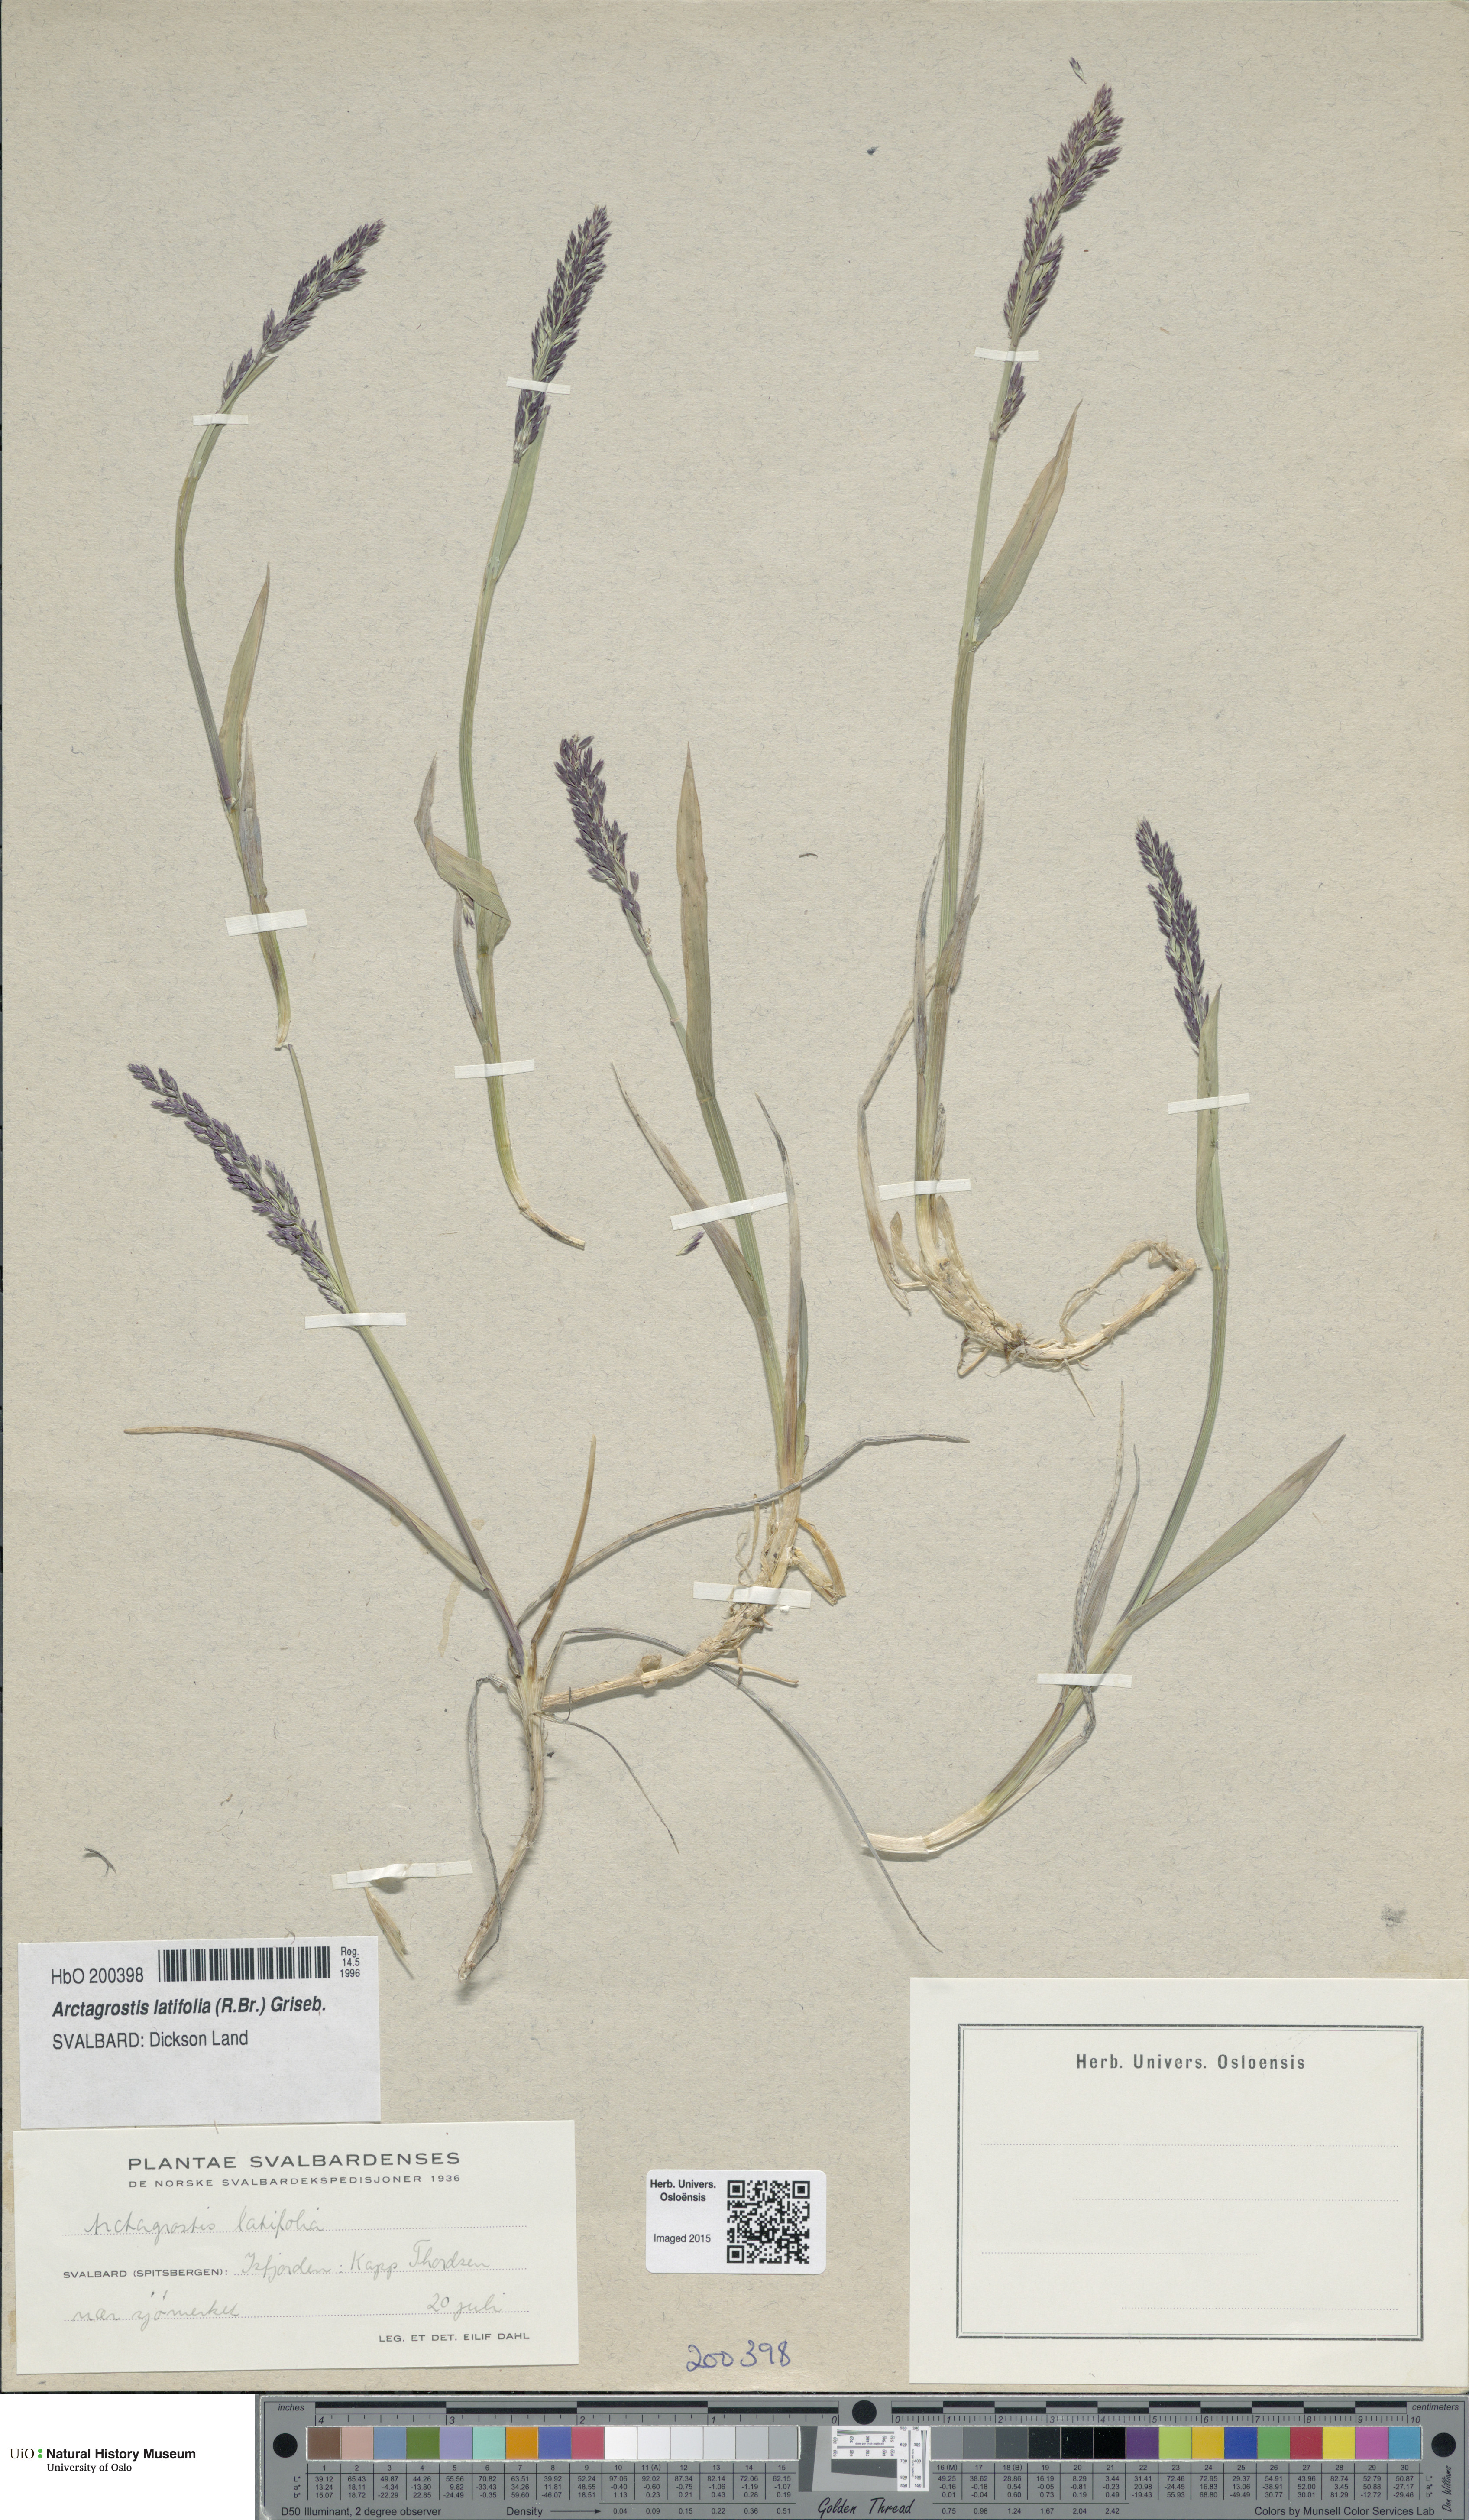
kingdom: Plantae
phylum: Tracheophyta
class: Liliopsida
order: Poales
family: Poaceae
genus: Arctagrostis
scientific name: Arctagrostis latifolia
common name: Arctic grass
